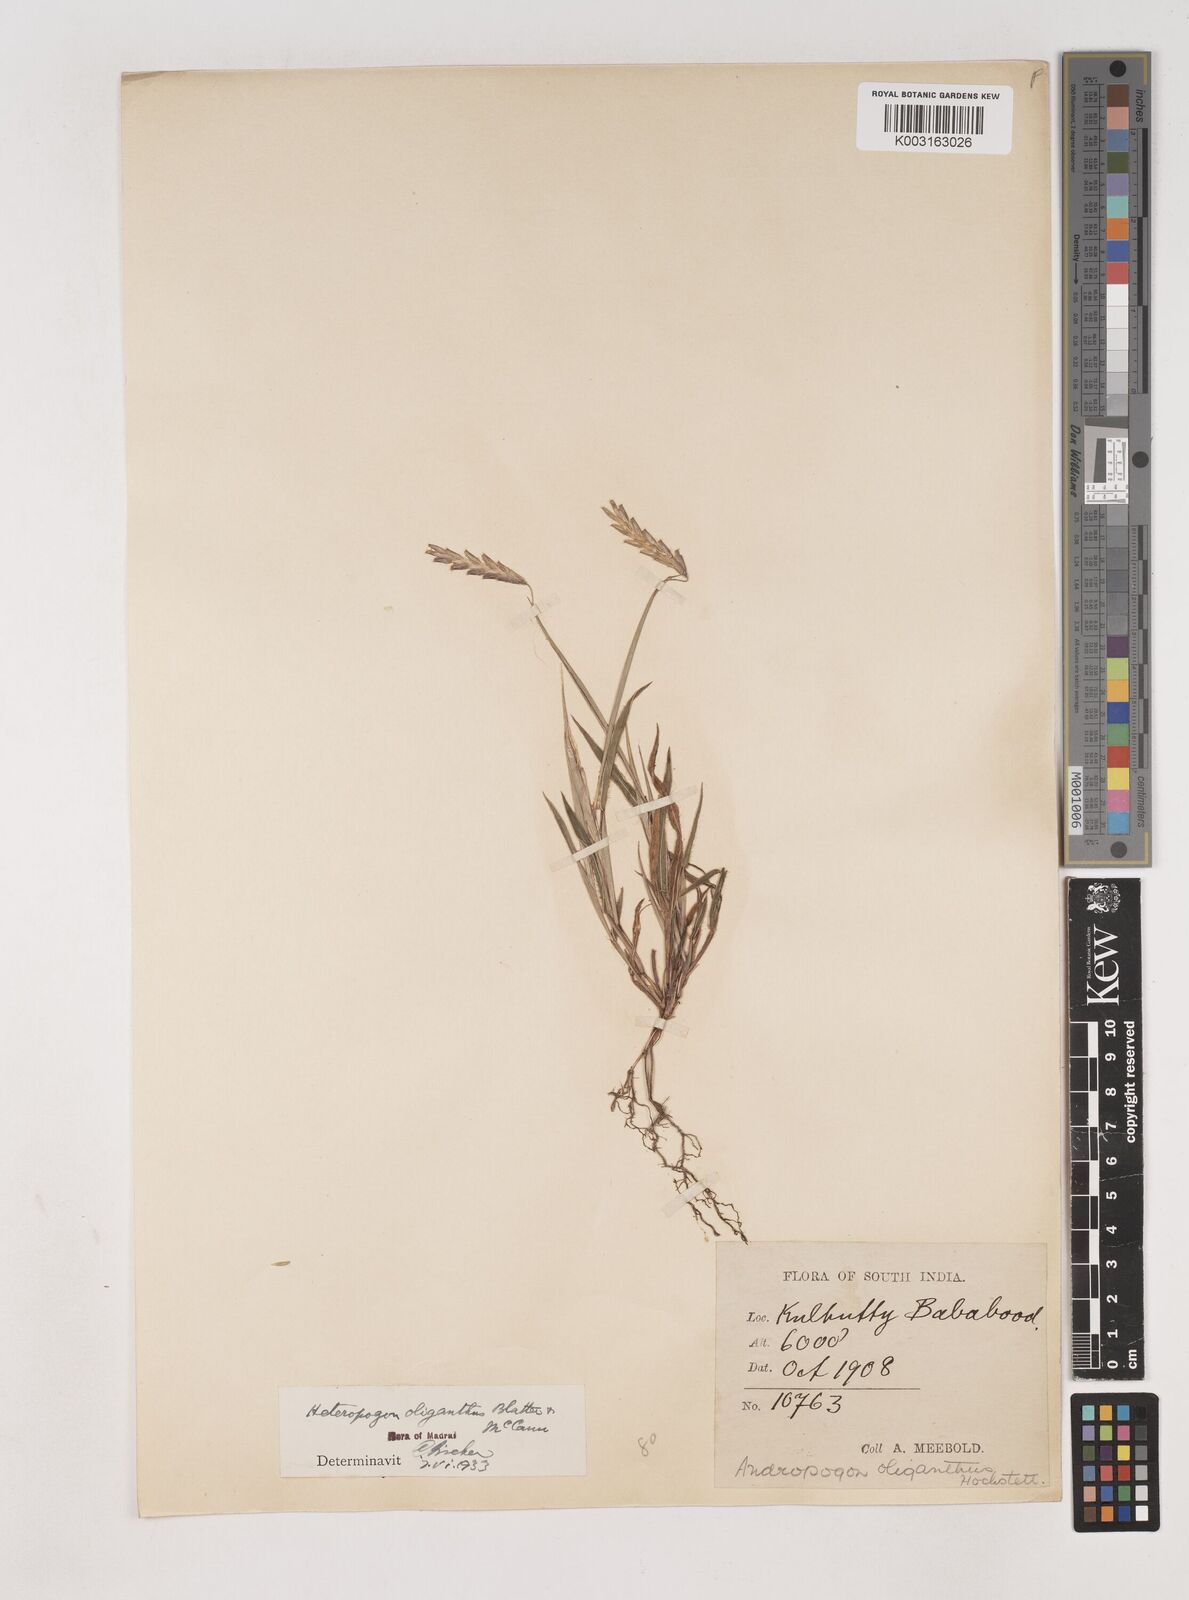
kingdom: Plantae
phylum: Tracheophyta
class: Liliopsida
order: Poales
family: Poaceae
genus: Euclasta
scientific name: Euclasta oligantha
